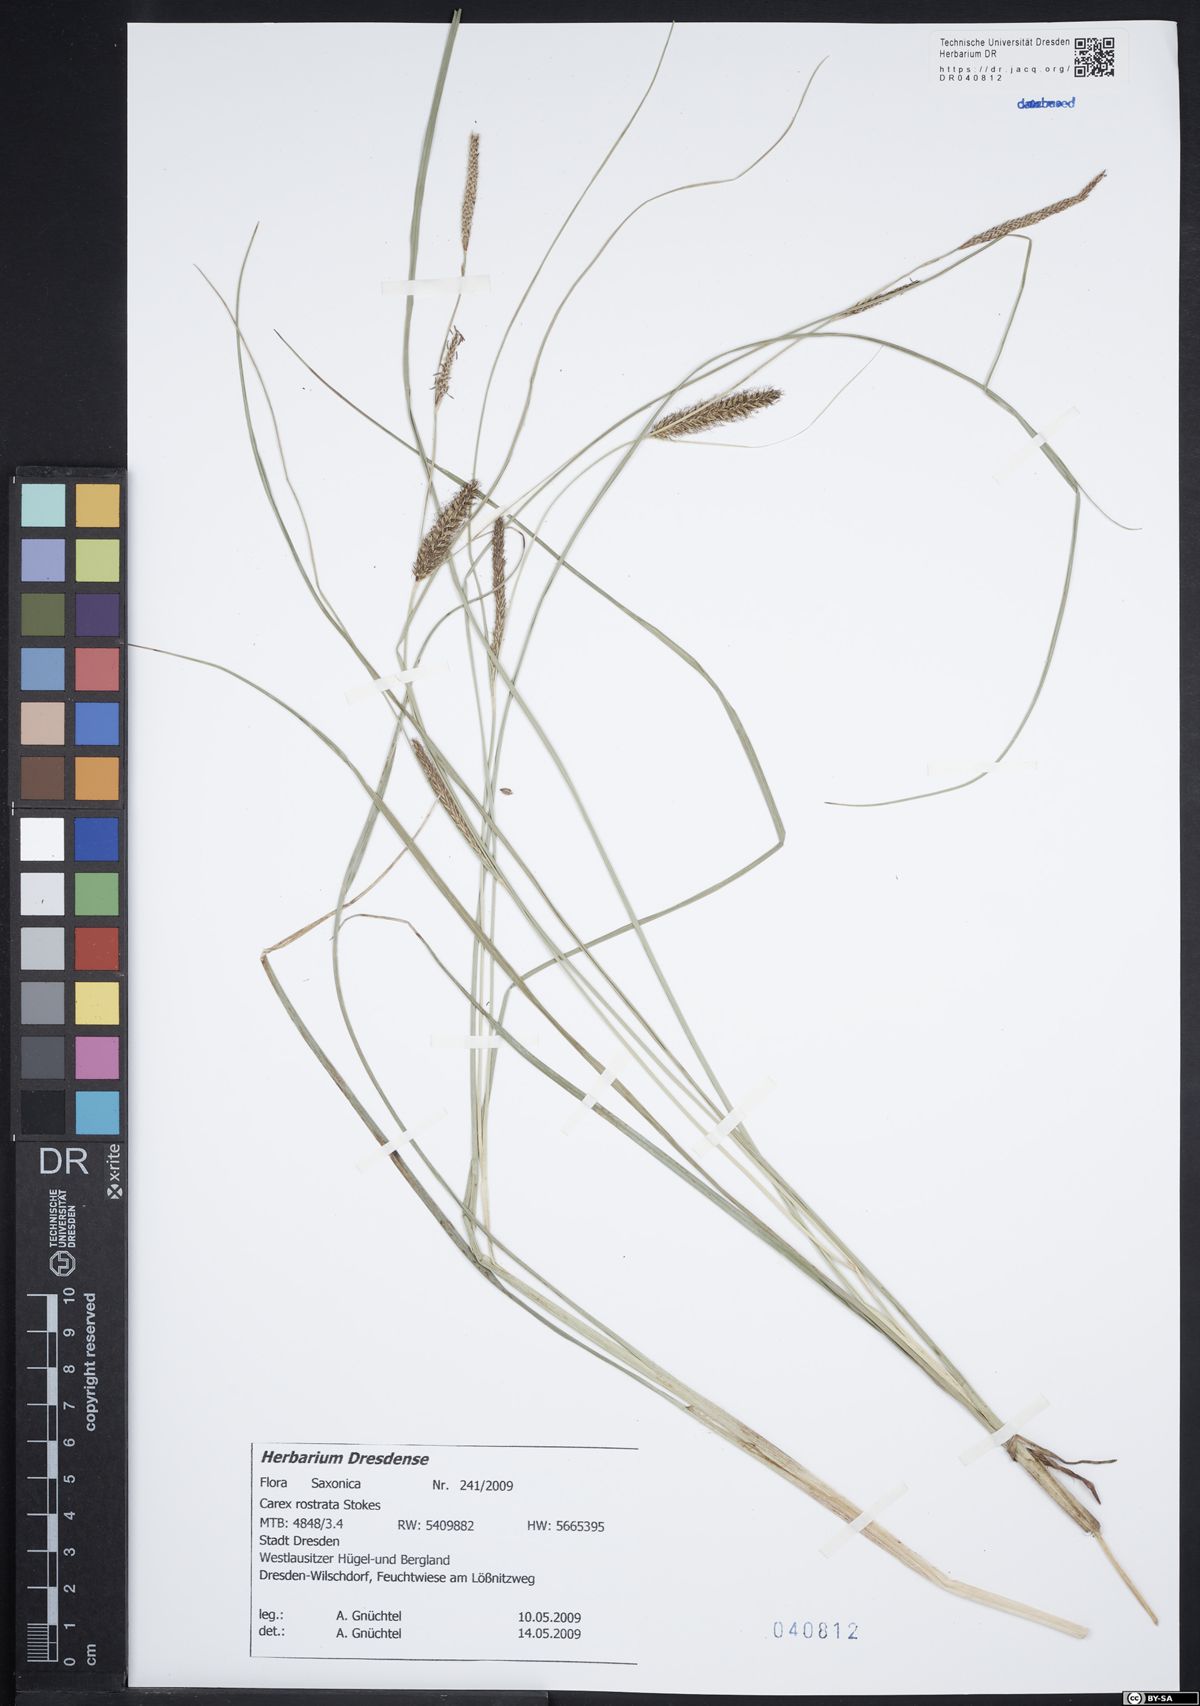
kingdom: Plantae
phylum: Tracheophyta
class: Liliopsida
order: Poales
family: Cyperaceae
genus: Carex
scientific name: Carex rostrata
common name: Bottle sedge
